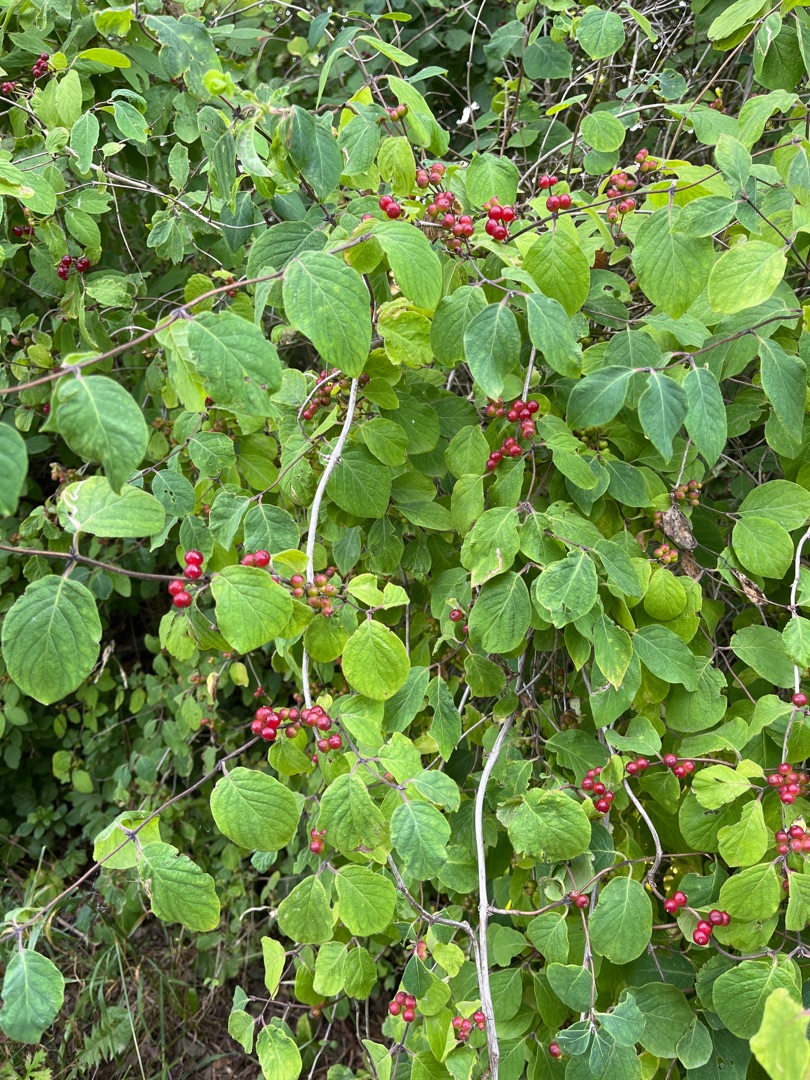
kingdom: Plantae
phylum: Tracheophyta
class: Magnoliopsida
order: Dipsacales
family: Caprifoliaceae
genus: Lonicera
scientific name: Lonicera xylosteum
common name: Dunet gedeblad
